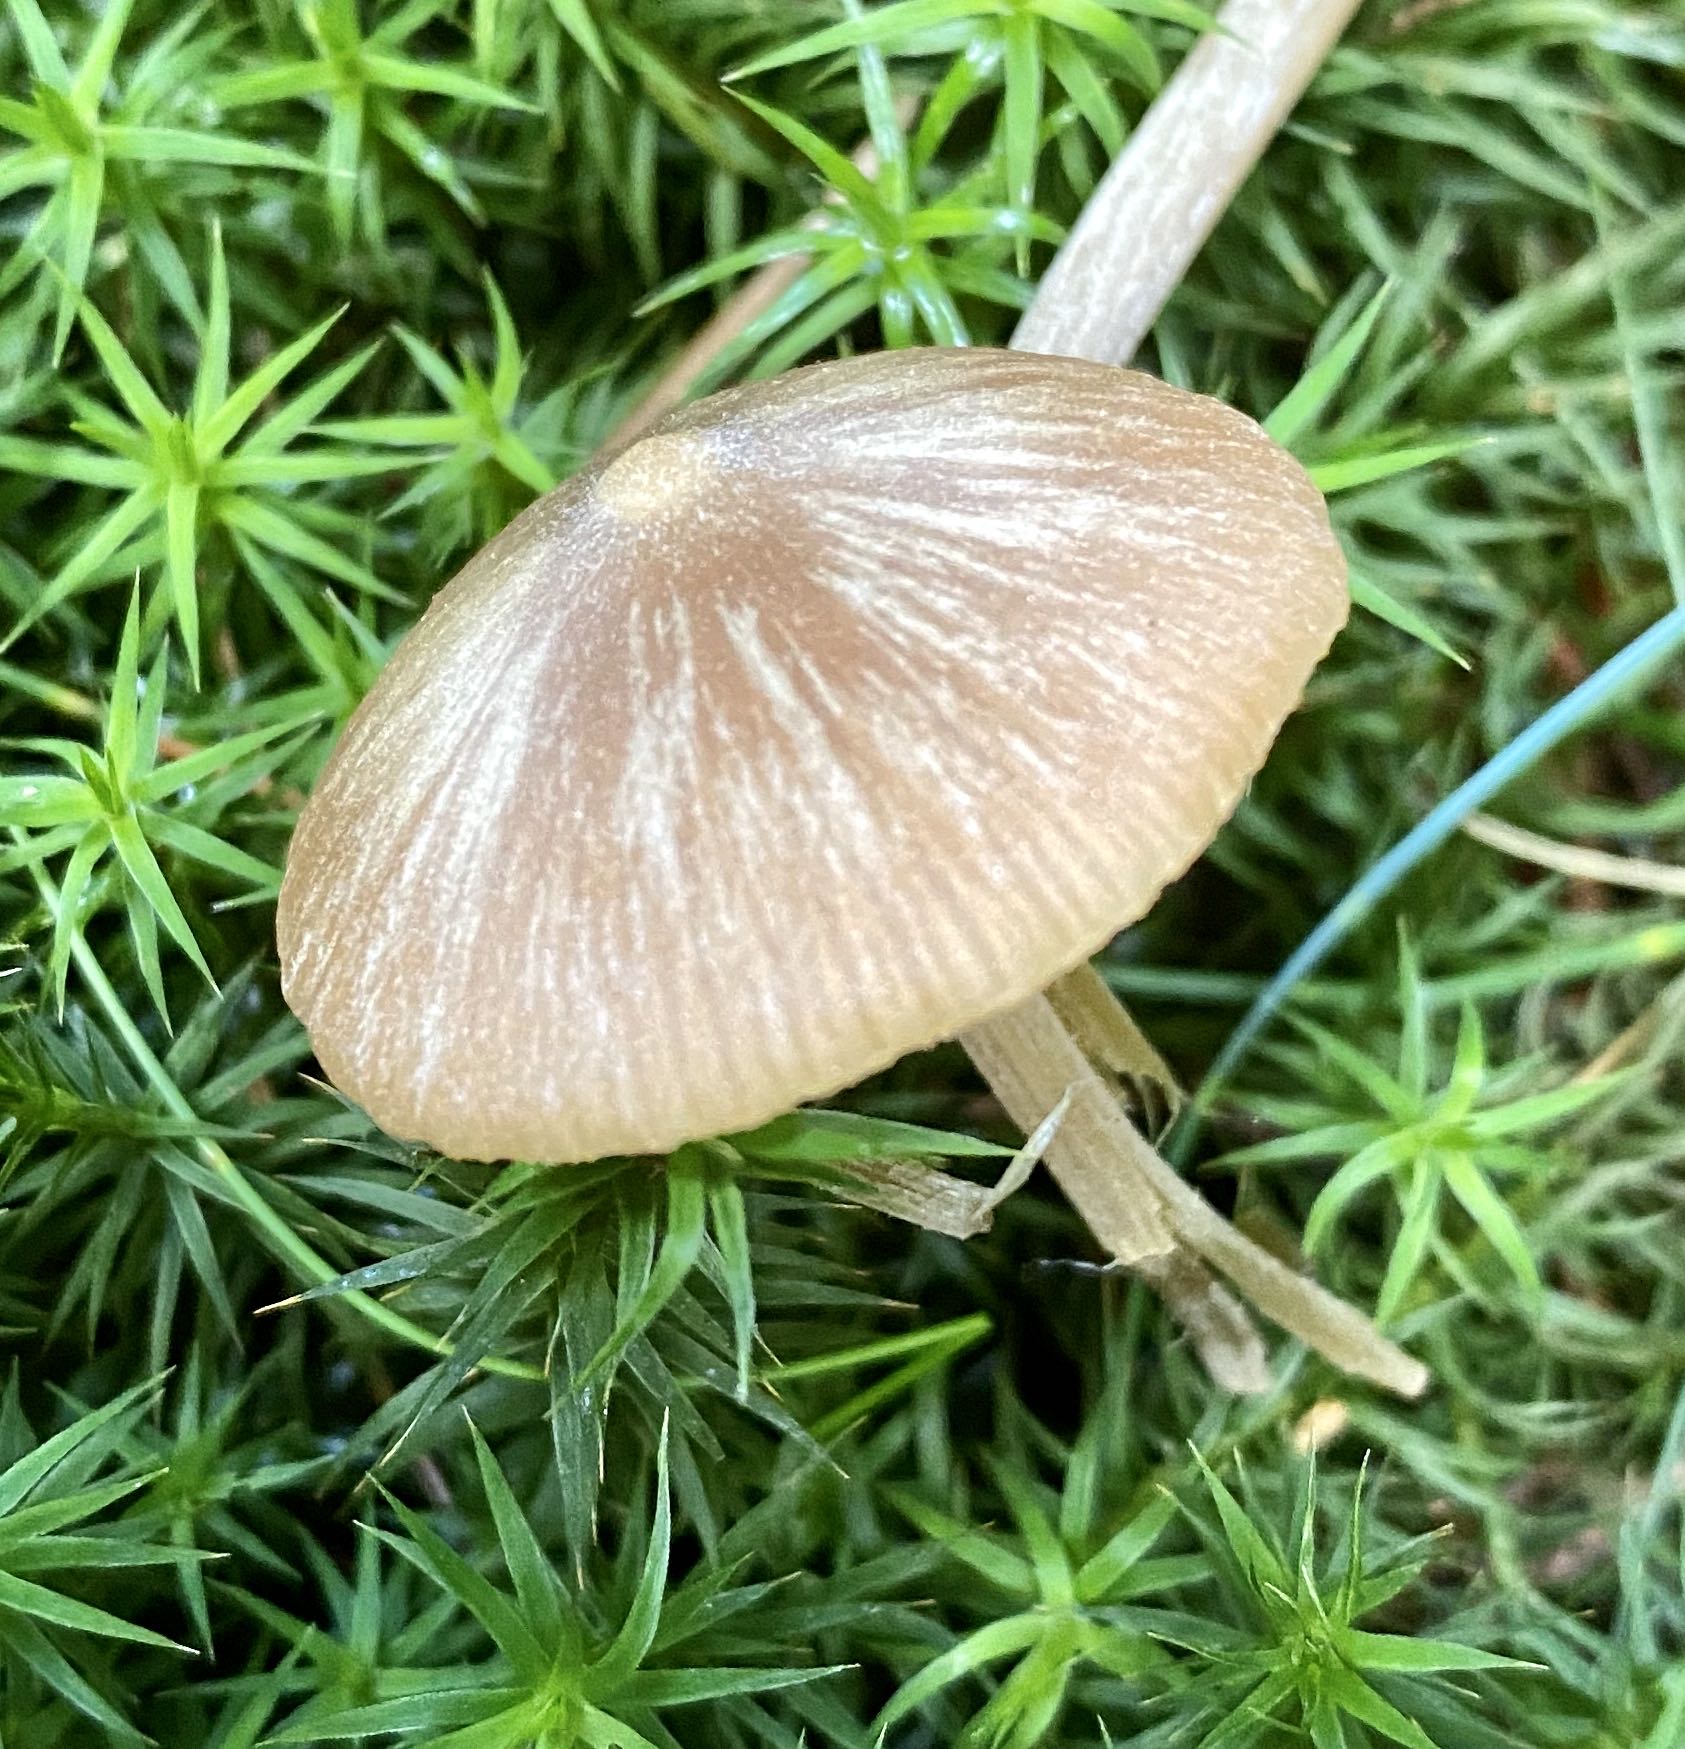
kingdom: Fungi
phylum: Basidiomycota
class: Agaricomycetes
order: Agaricales
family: Entolomataceae
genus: Entoloma
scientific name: Entoloma cetratum
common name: voks-rødblad
